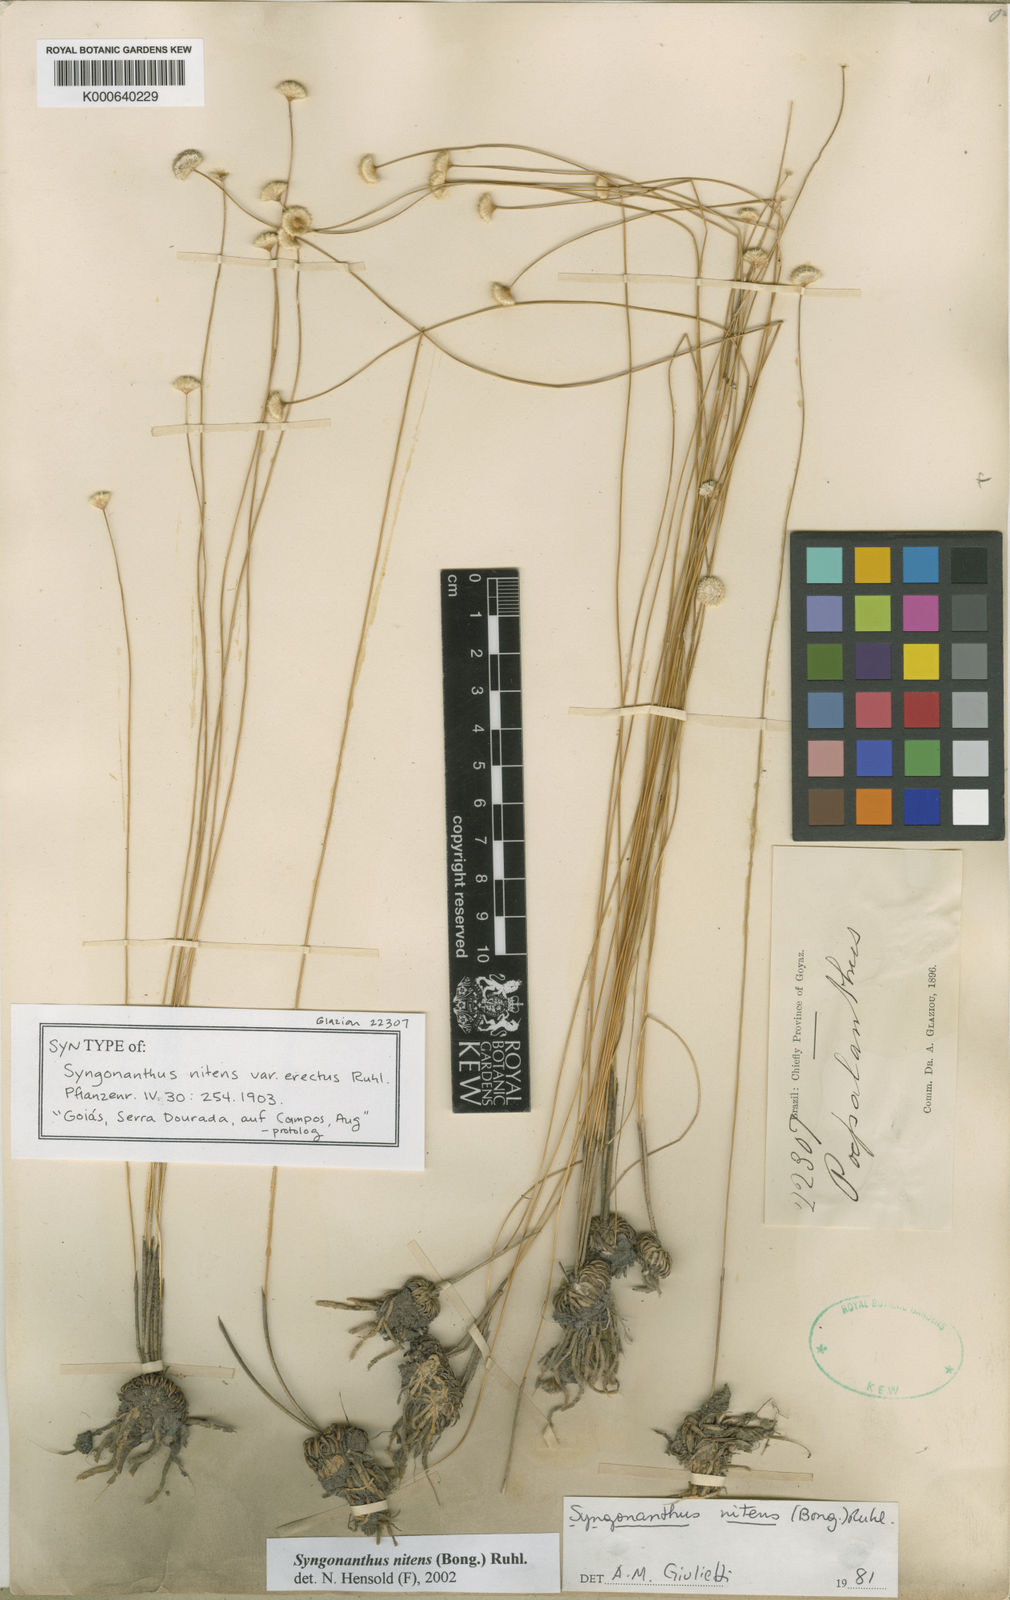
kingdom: Plantae
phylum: Tracheophyta
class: Liliopsida
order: Poales
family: Eriocaulaceae
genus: Syngonanthus
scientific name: Syngonanthus nitens
